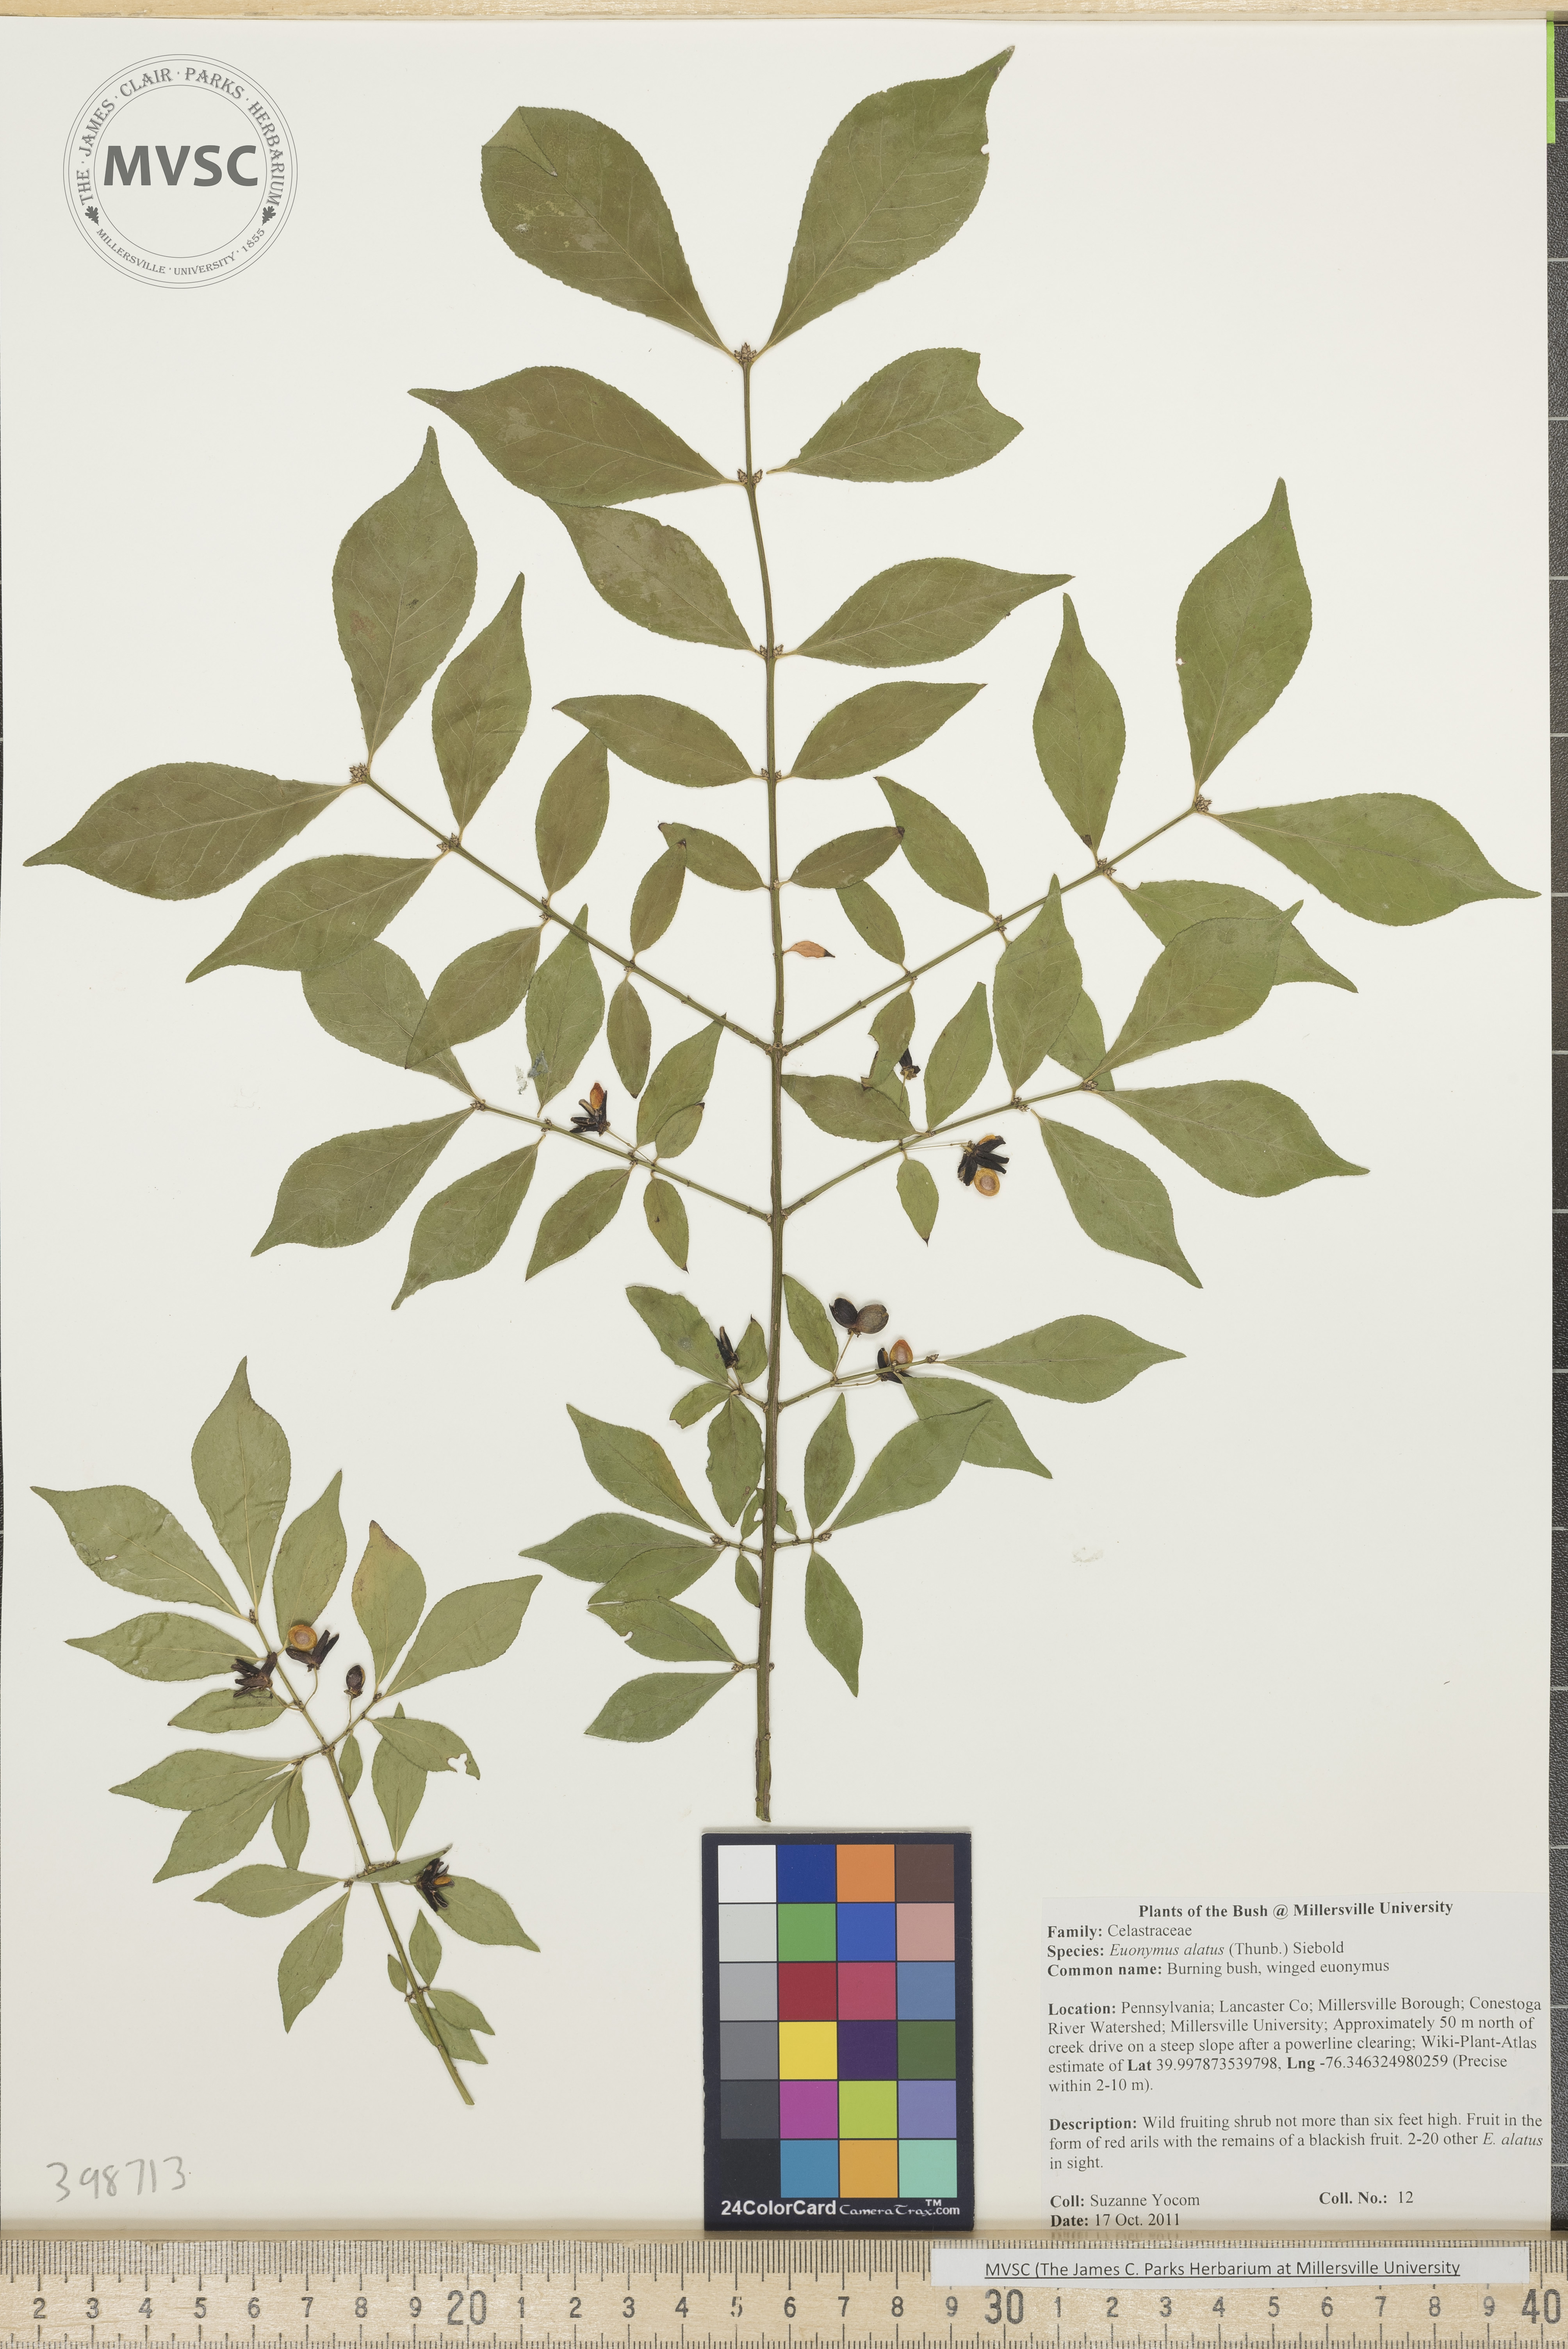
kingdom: Plantae
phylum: Tracheophyta
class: Magnoliopsida
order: Celastrales
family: Celastraceae
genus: Euonymus
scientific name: Euonymus alatus
